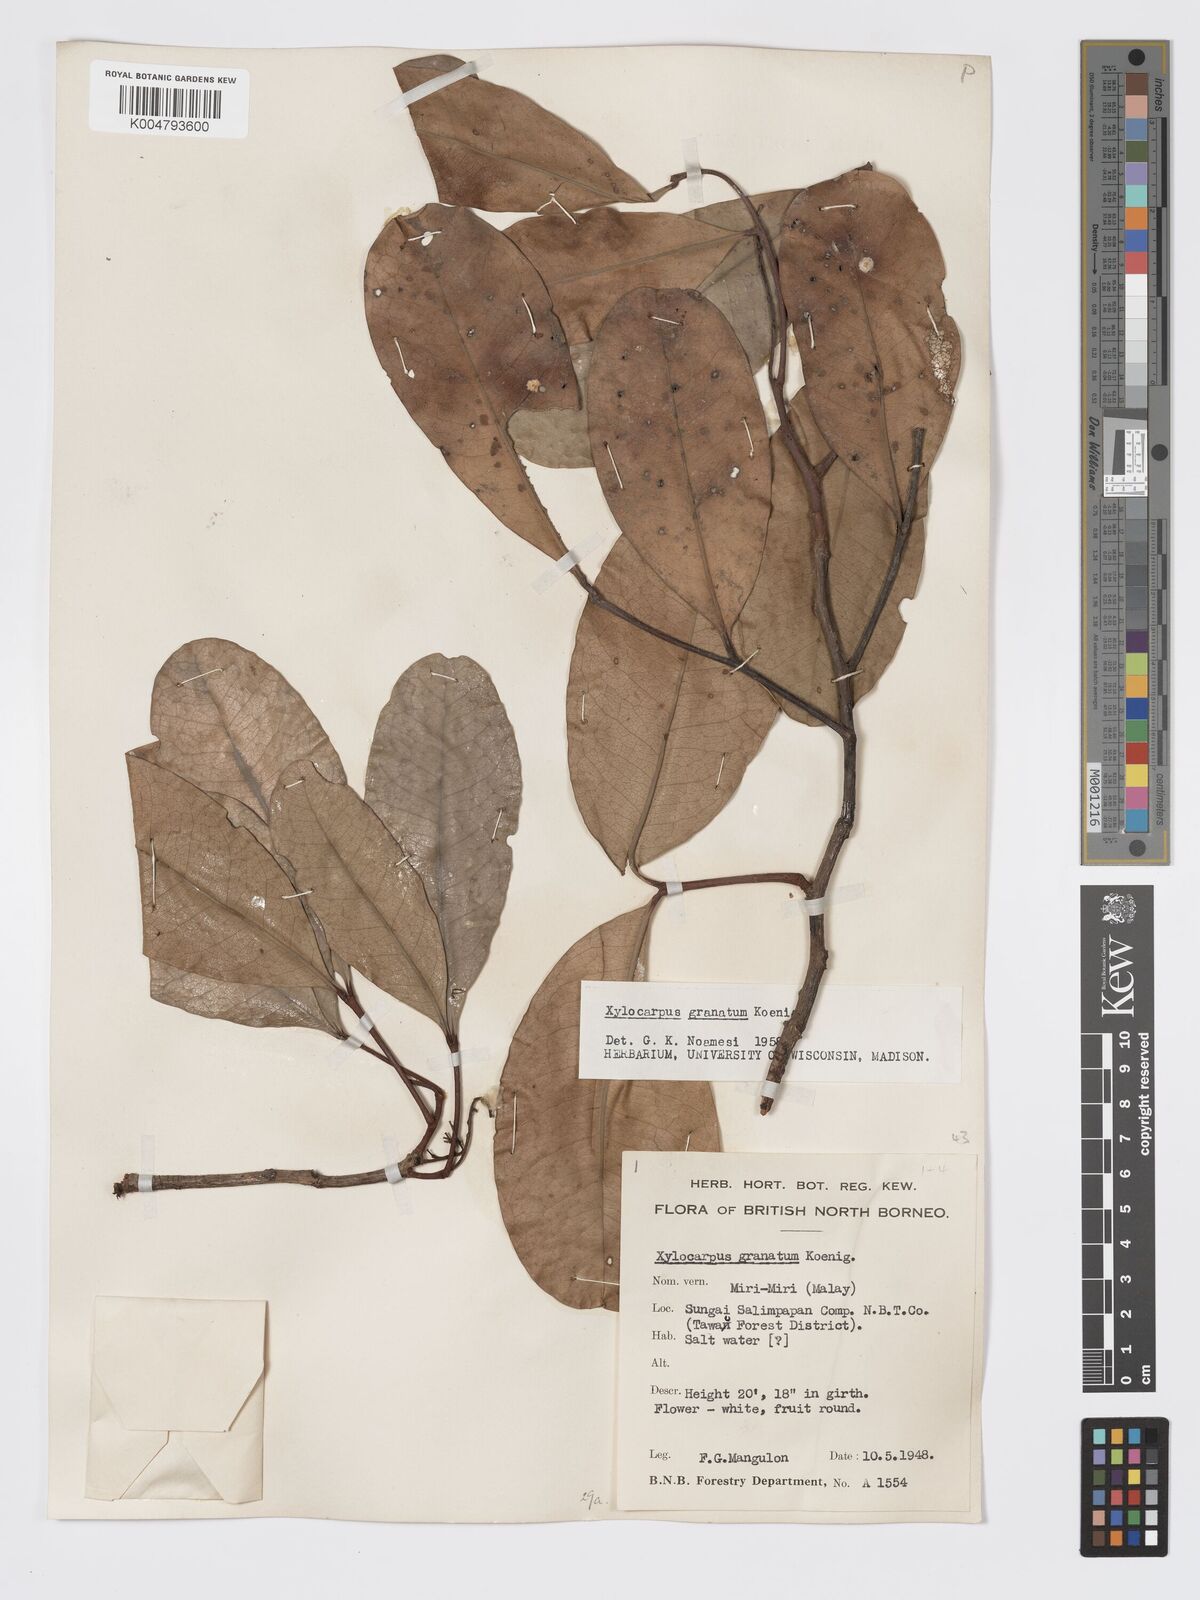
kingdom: Plantae
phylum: Tracheophyta
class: Magnoliopsida
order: Sapindales
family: Meliaceae
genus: Xylocarpus
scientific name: Xylocarpus granatum
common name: Apple mangrove
